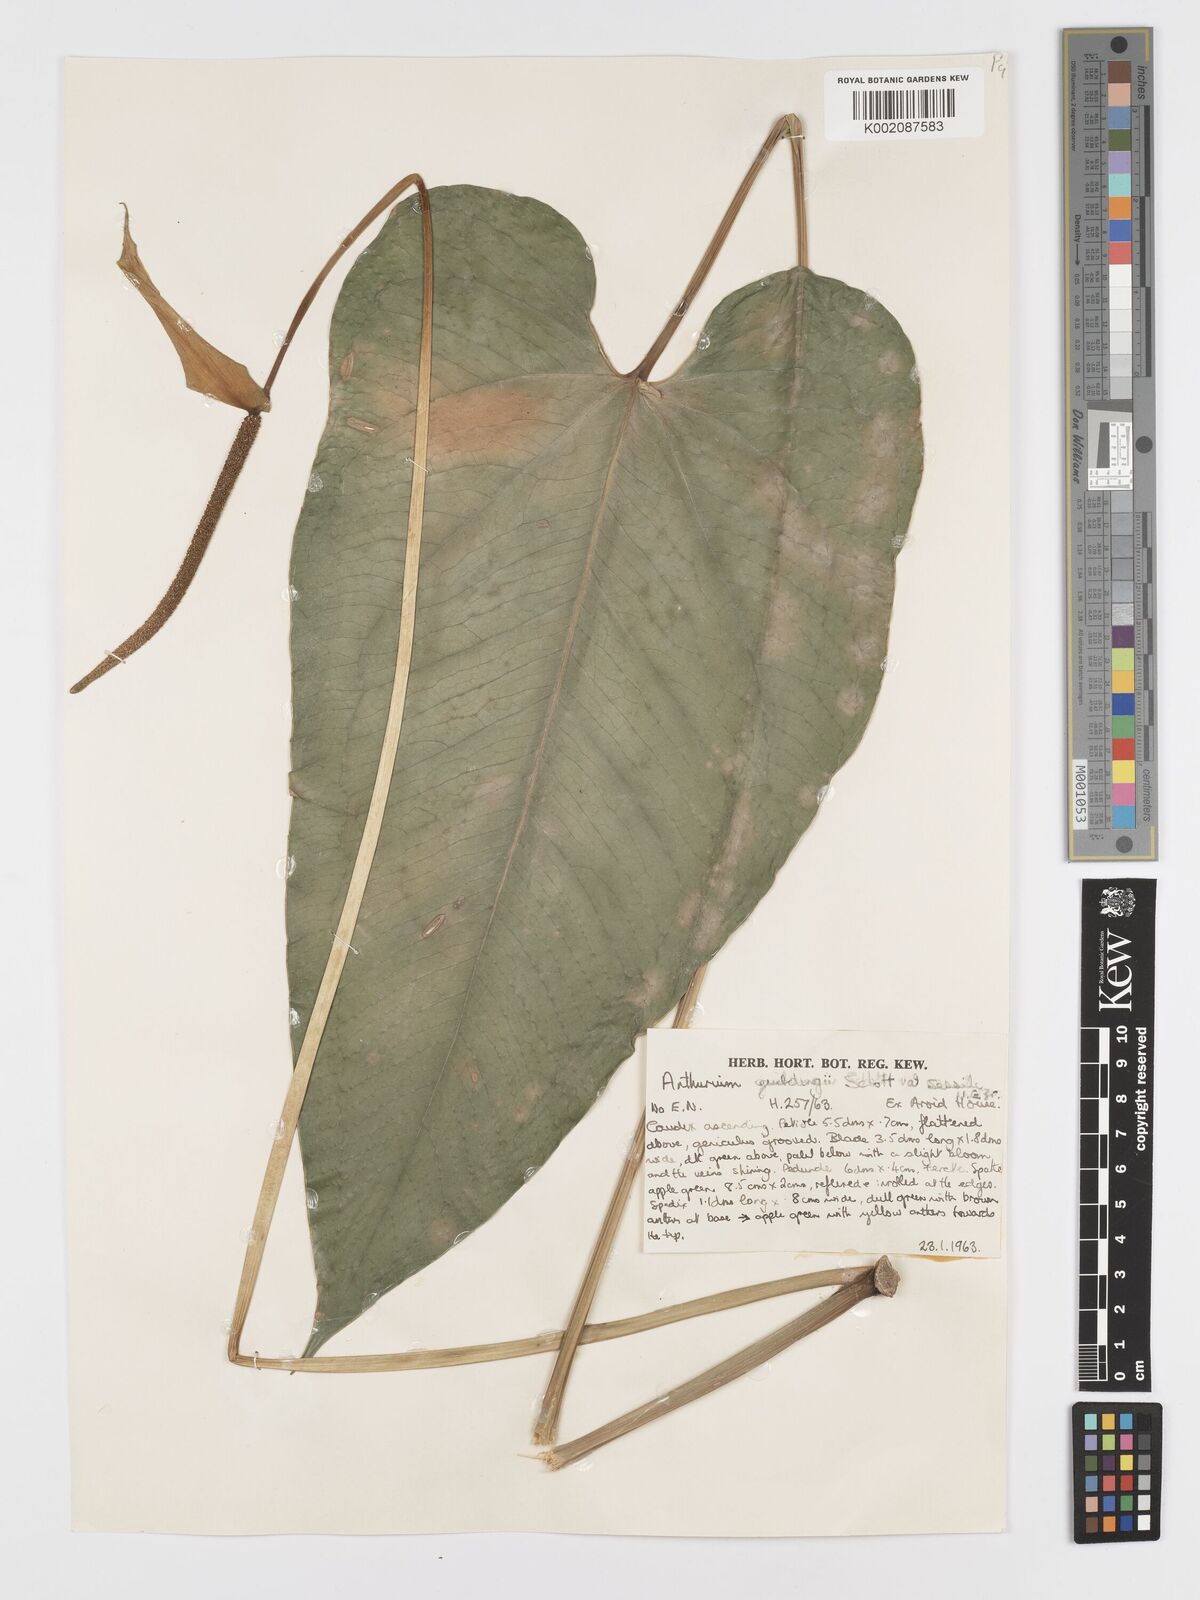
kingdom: Plantae
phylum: Tracheophyta
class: Liliopsida
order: Alismatales
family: Araceae
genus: Anthurium
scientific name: Anthurium cordatum
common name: Monkey tail
